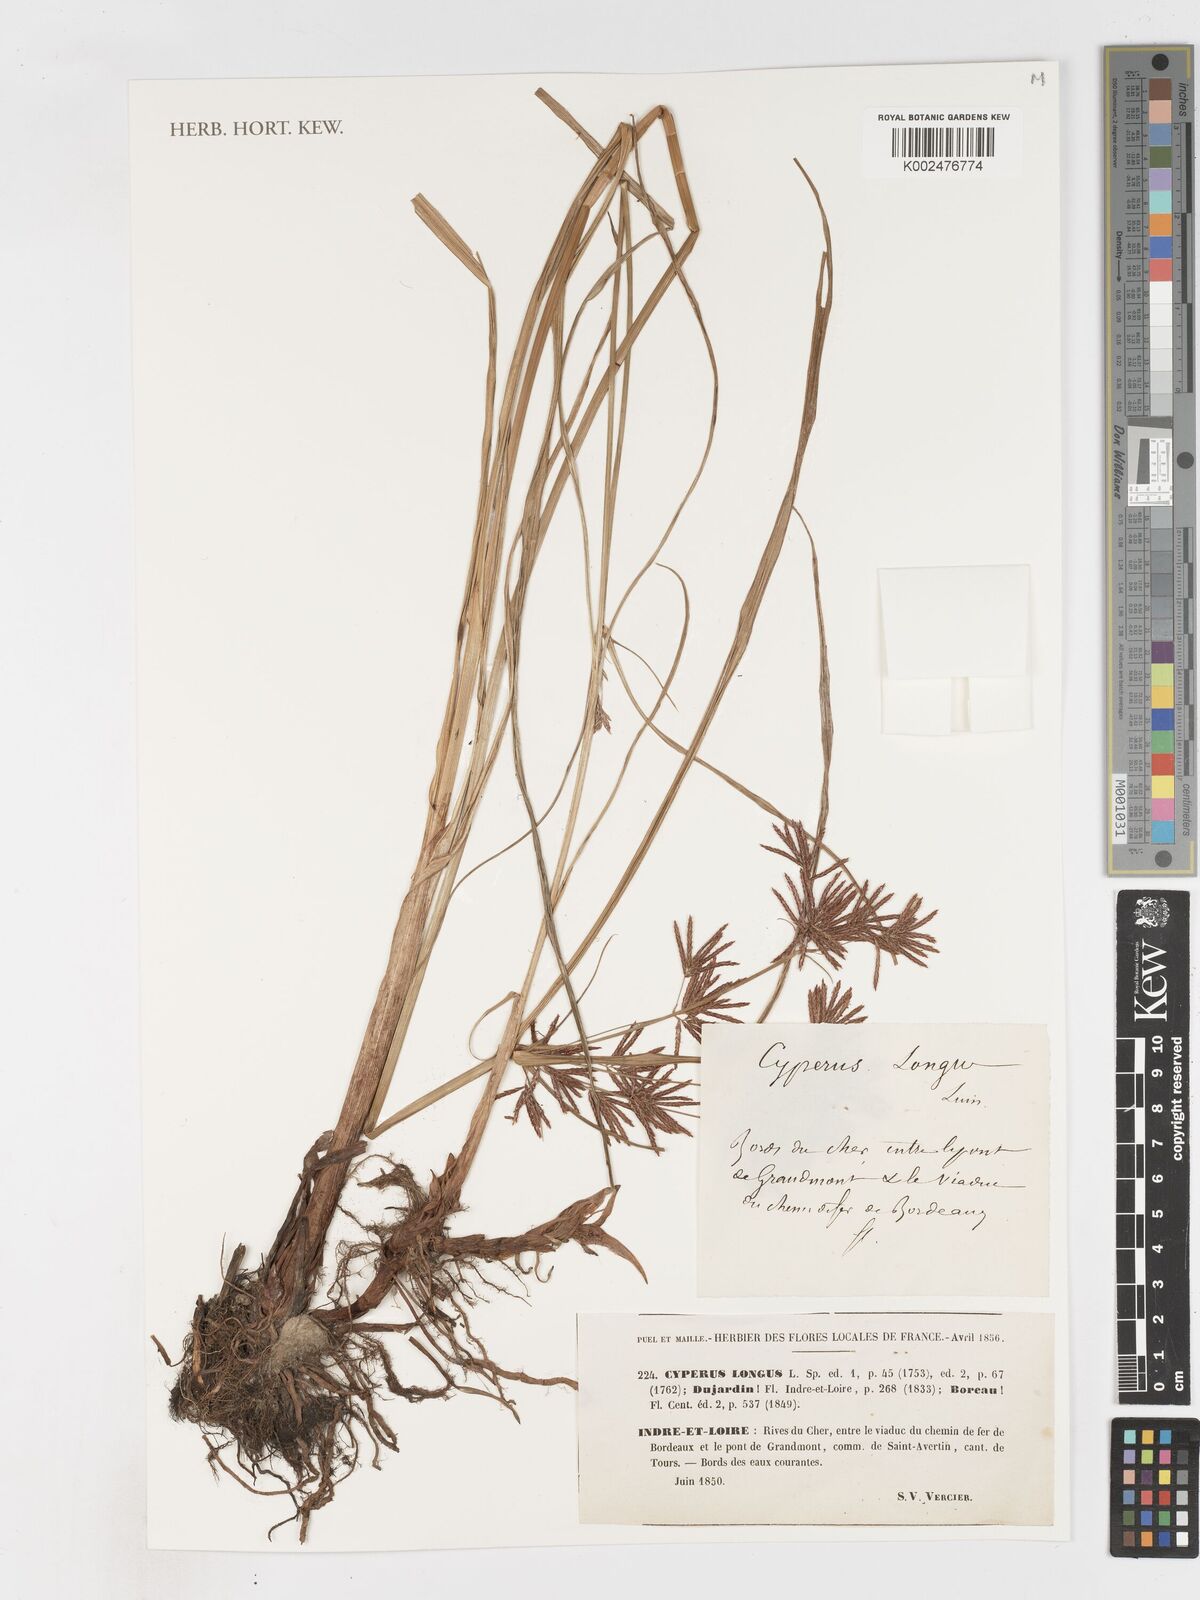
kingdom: Plantae
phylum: Tracheophyta
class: Liliopsida
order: Poales
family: Cyperaceae
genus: Cyperus
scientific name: Cyperus longus
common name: Galingale
